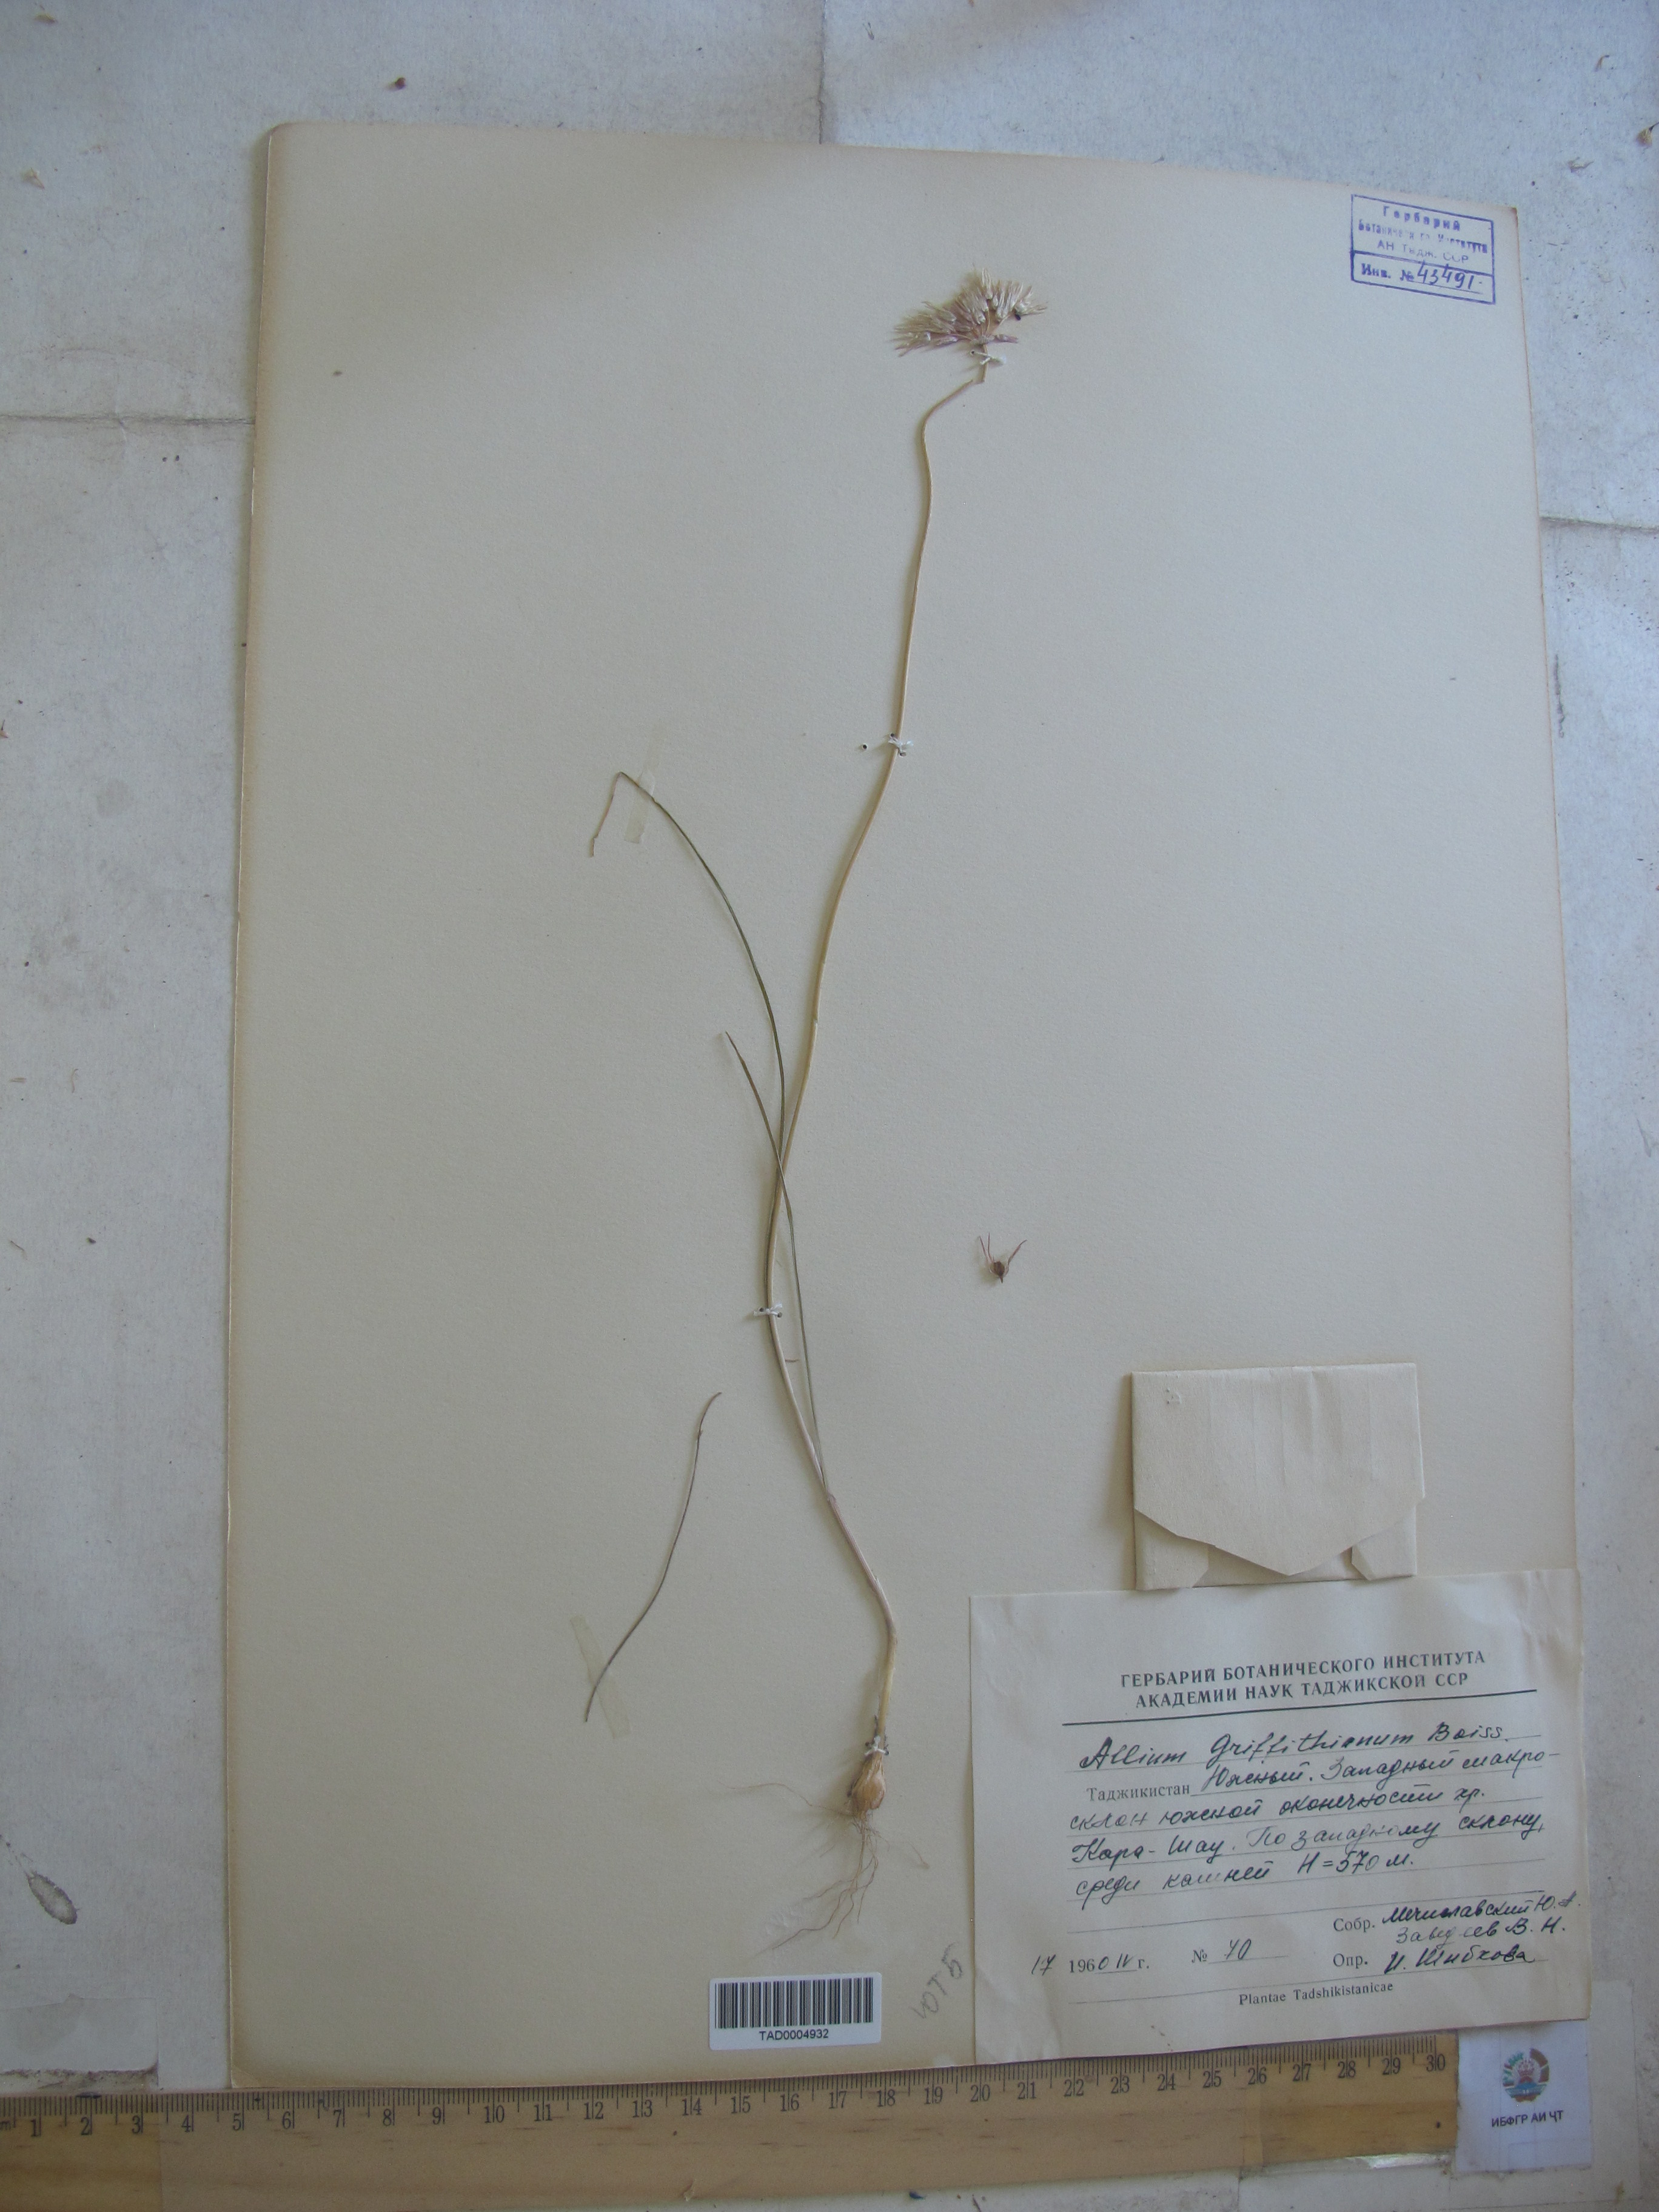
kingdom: Plantae
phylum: Tracheophyta
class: Liliopsida
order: Asparagales
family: Amaryllidaceae
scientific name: Amaryllidaceae
